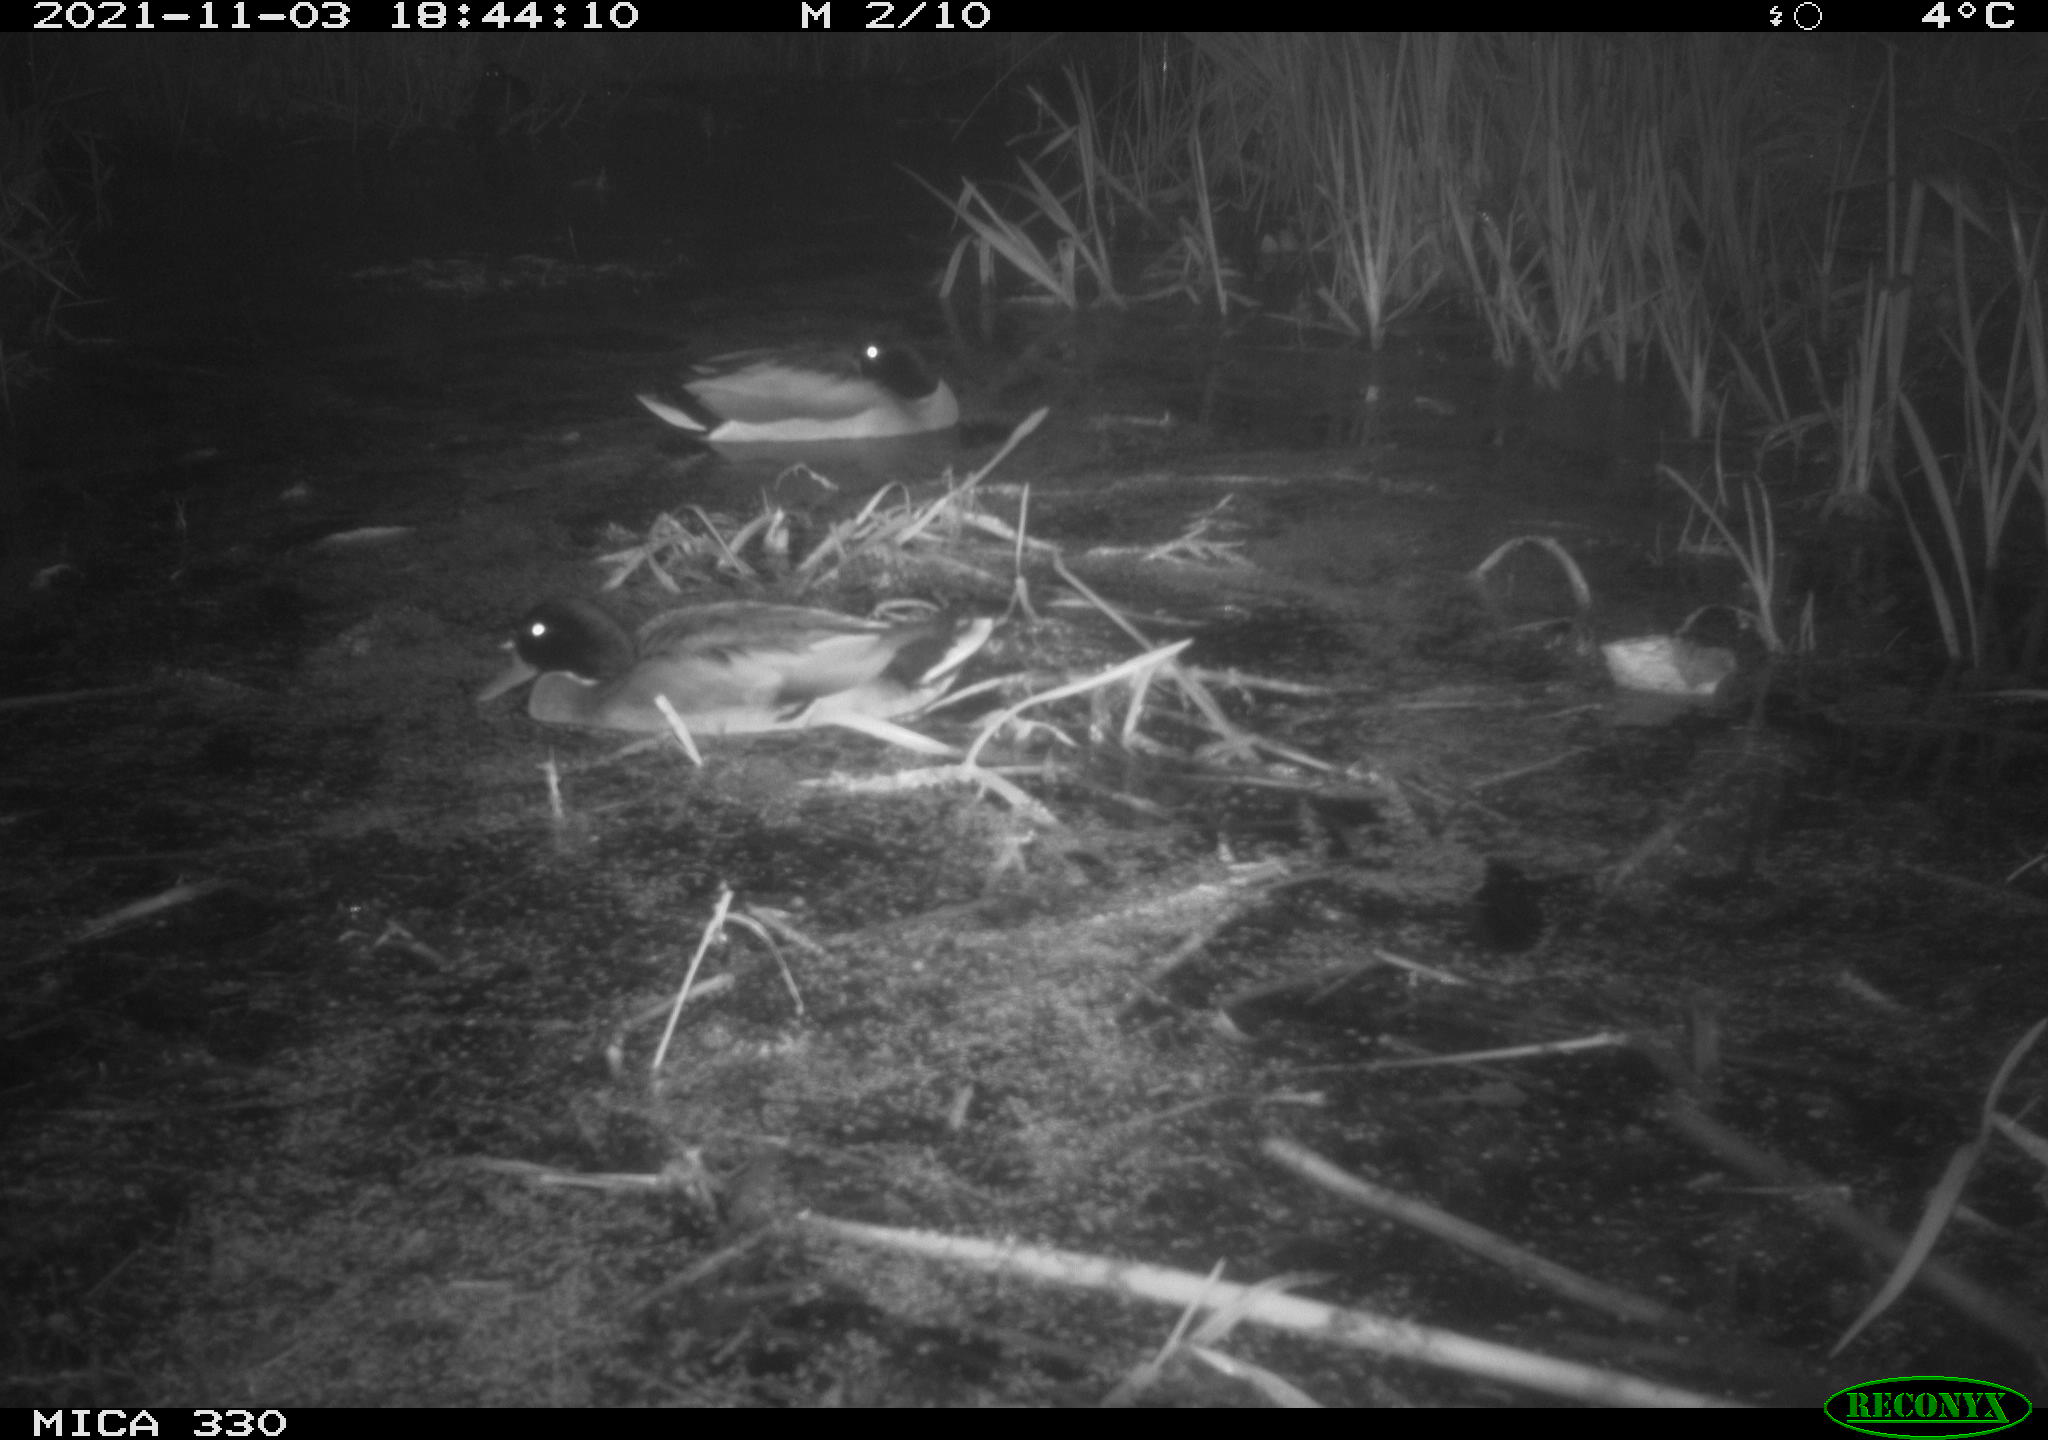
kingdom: Animalia
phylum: Chordata
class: Aves
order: Anseriformes
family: Anatidae
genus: Anas
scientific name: Anas platyrhynchos
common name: Mallard
